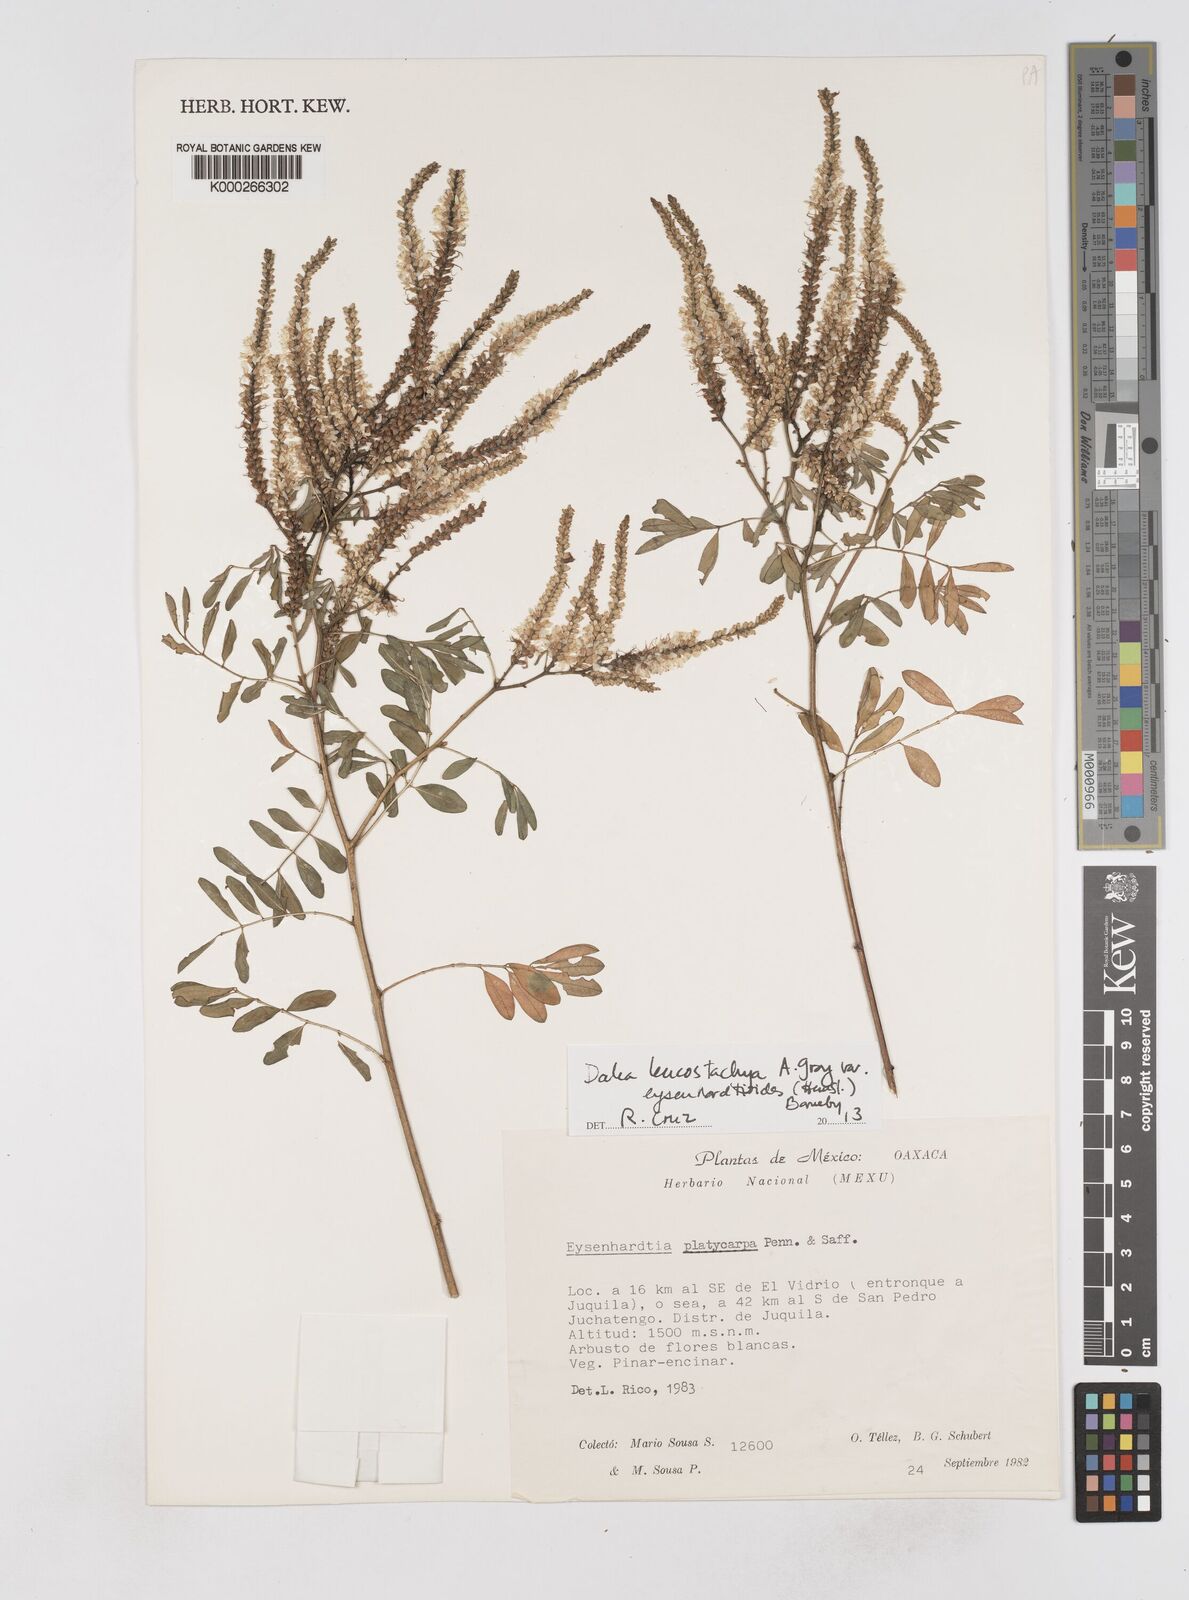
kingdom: Plantae
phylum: Tracheophyta
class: Magnoliopsida
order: Fabales
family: Fabaceae
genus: Dalea
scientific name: Dalea leucostachya
